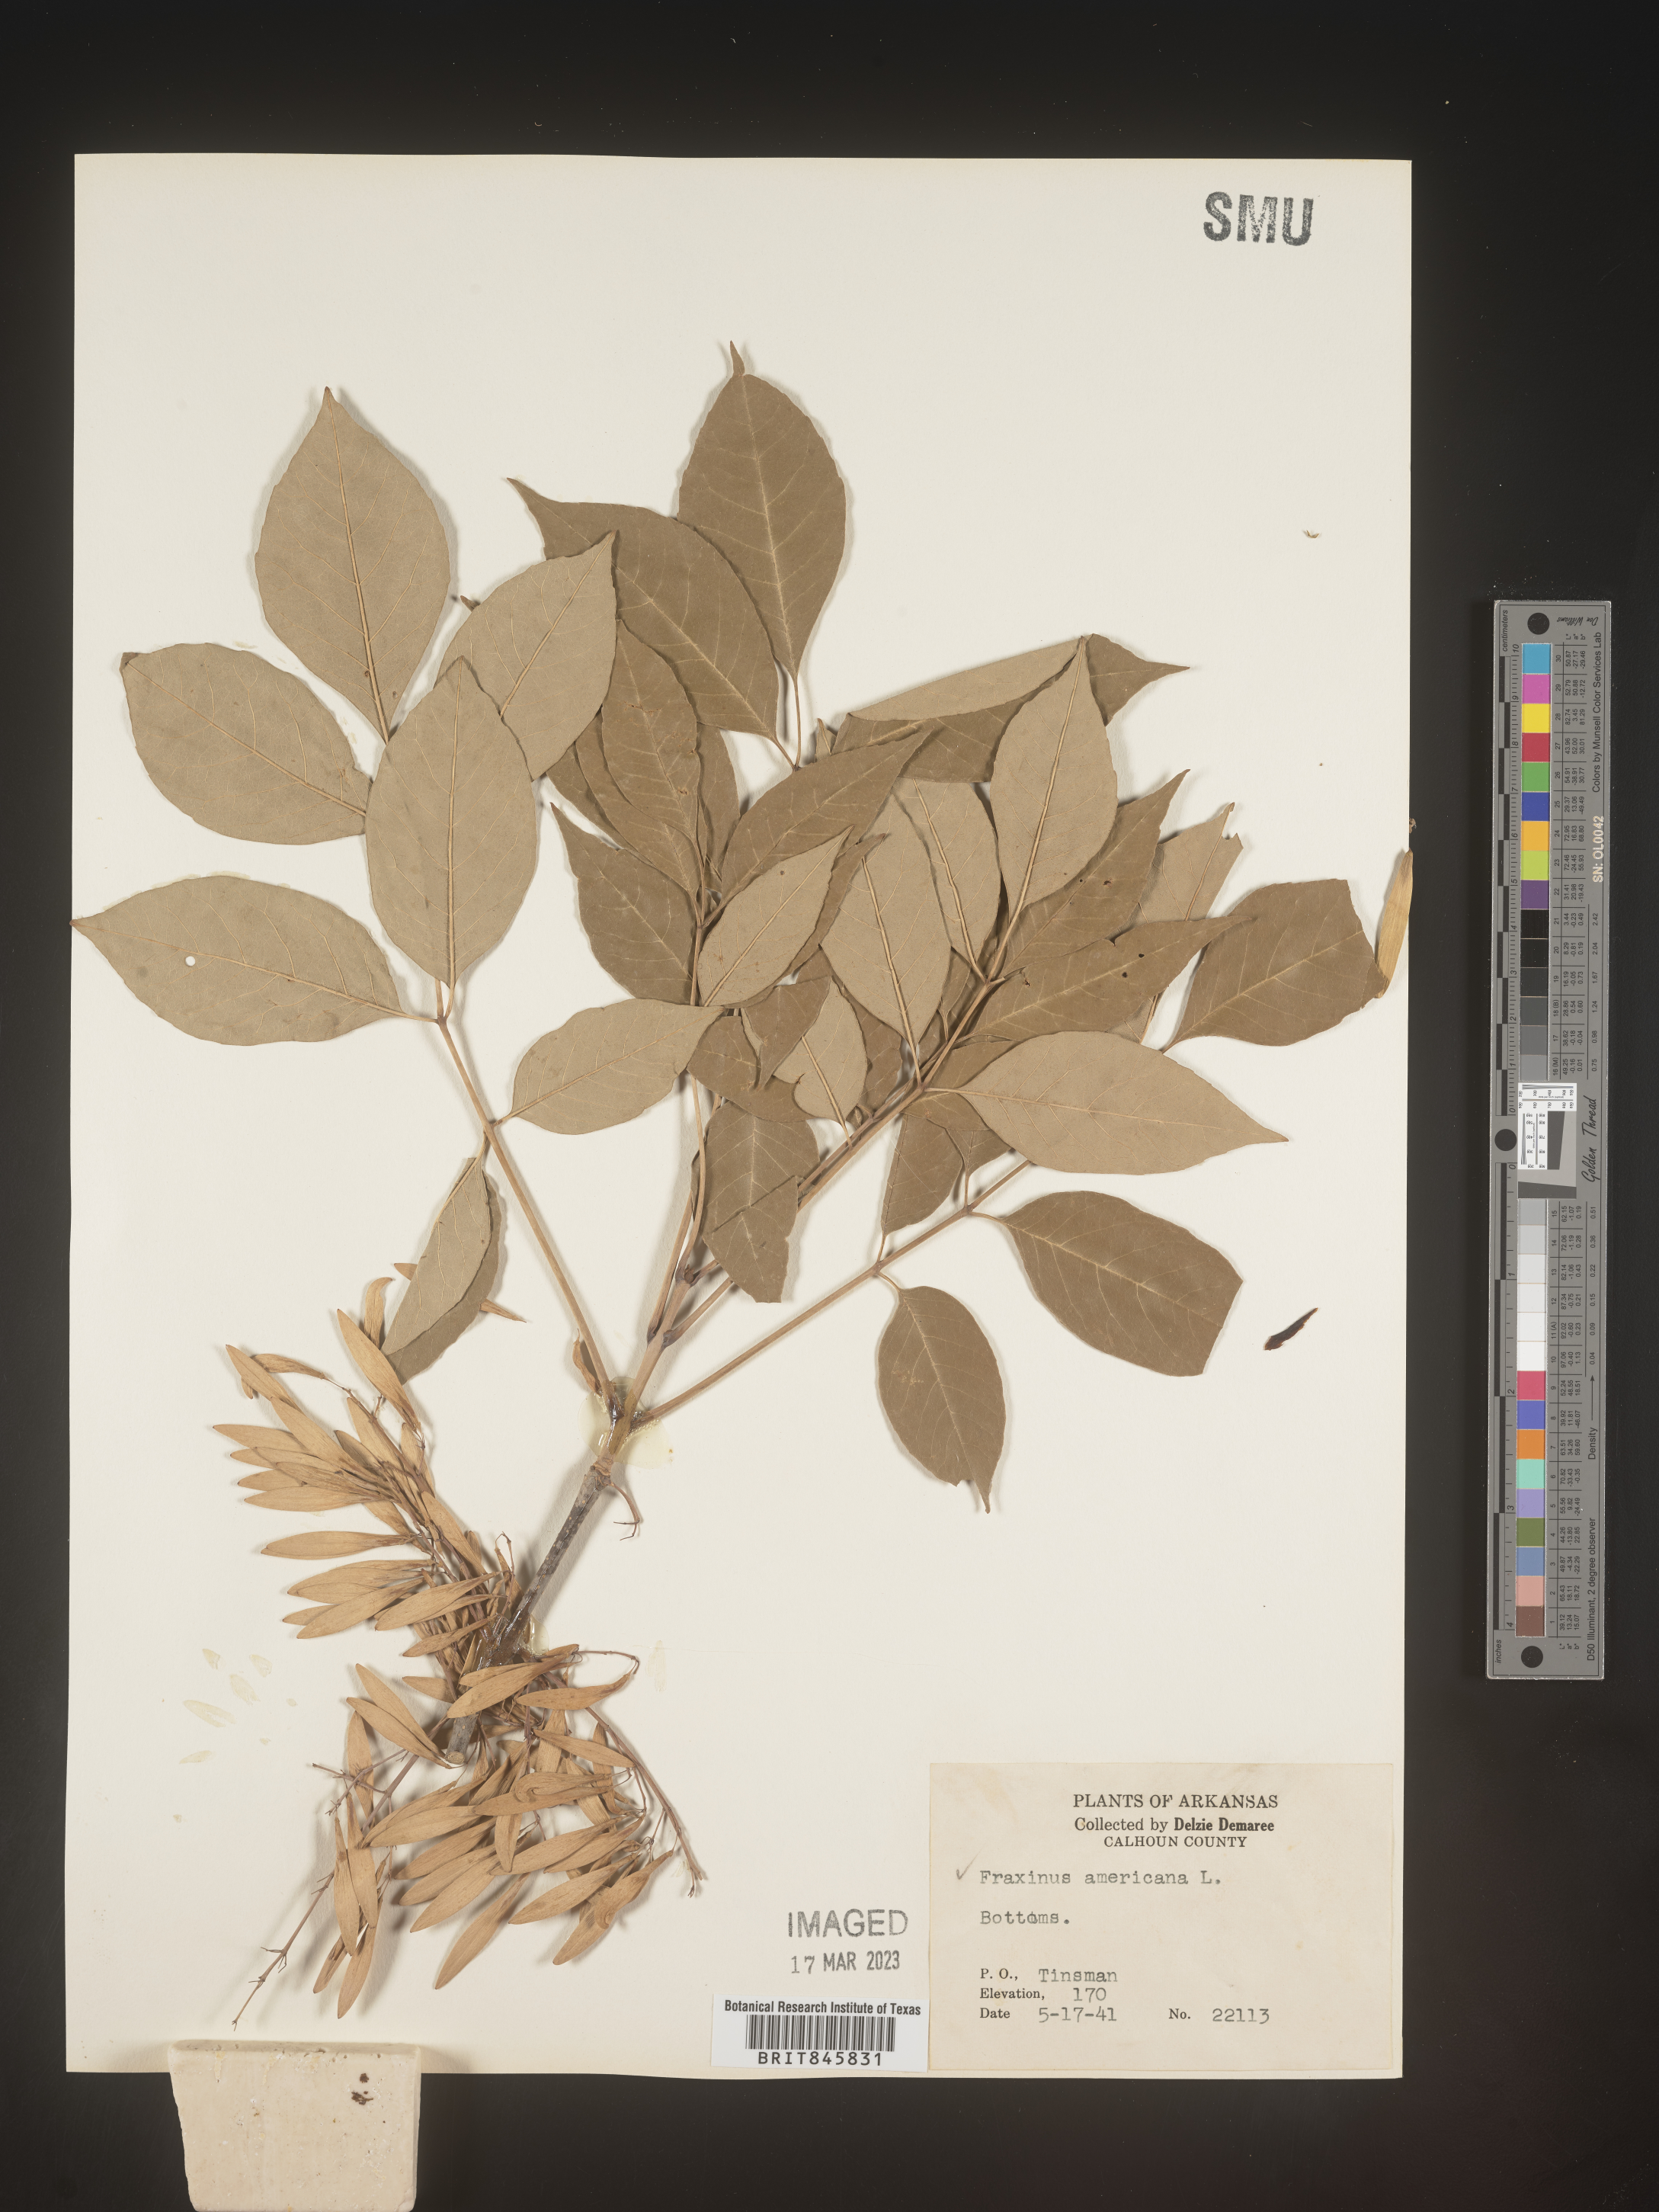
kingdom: Plantae
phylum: Tracheophyta
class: Magnoliopsida
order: Lamiales
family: Oleaceae
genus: Fraxinus
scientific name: Fraxinus americana
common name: White ash
